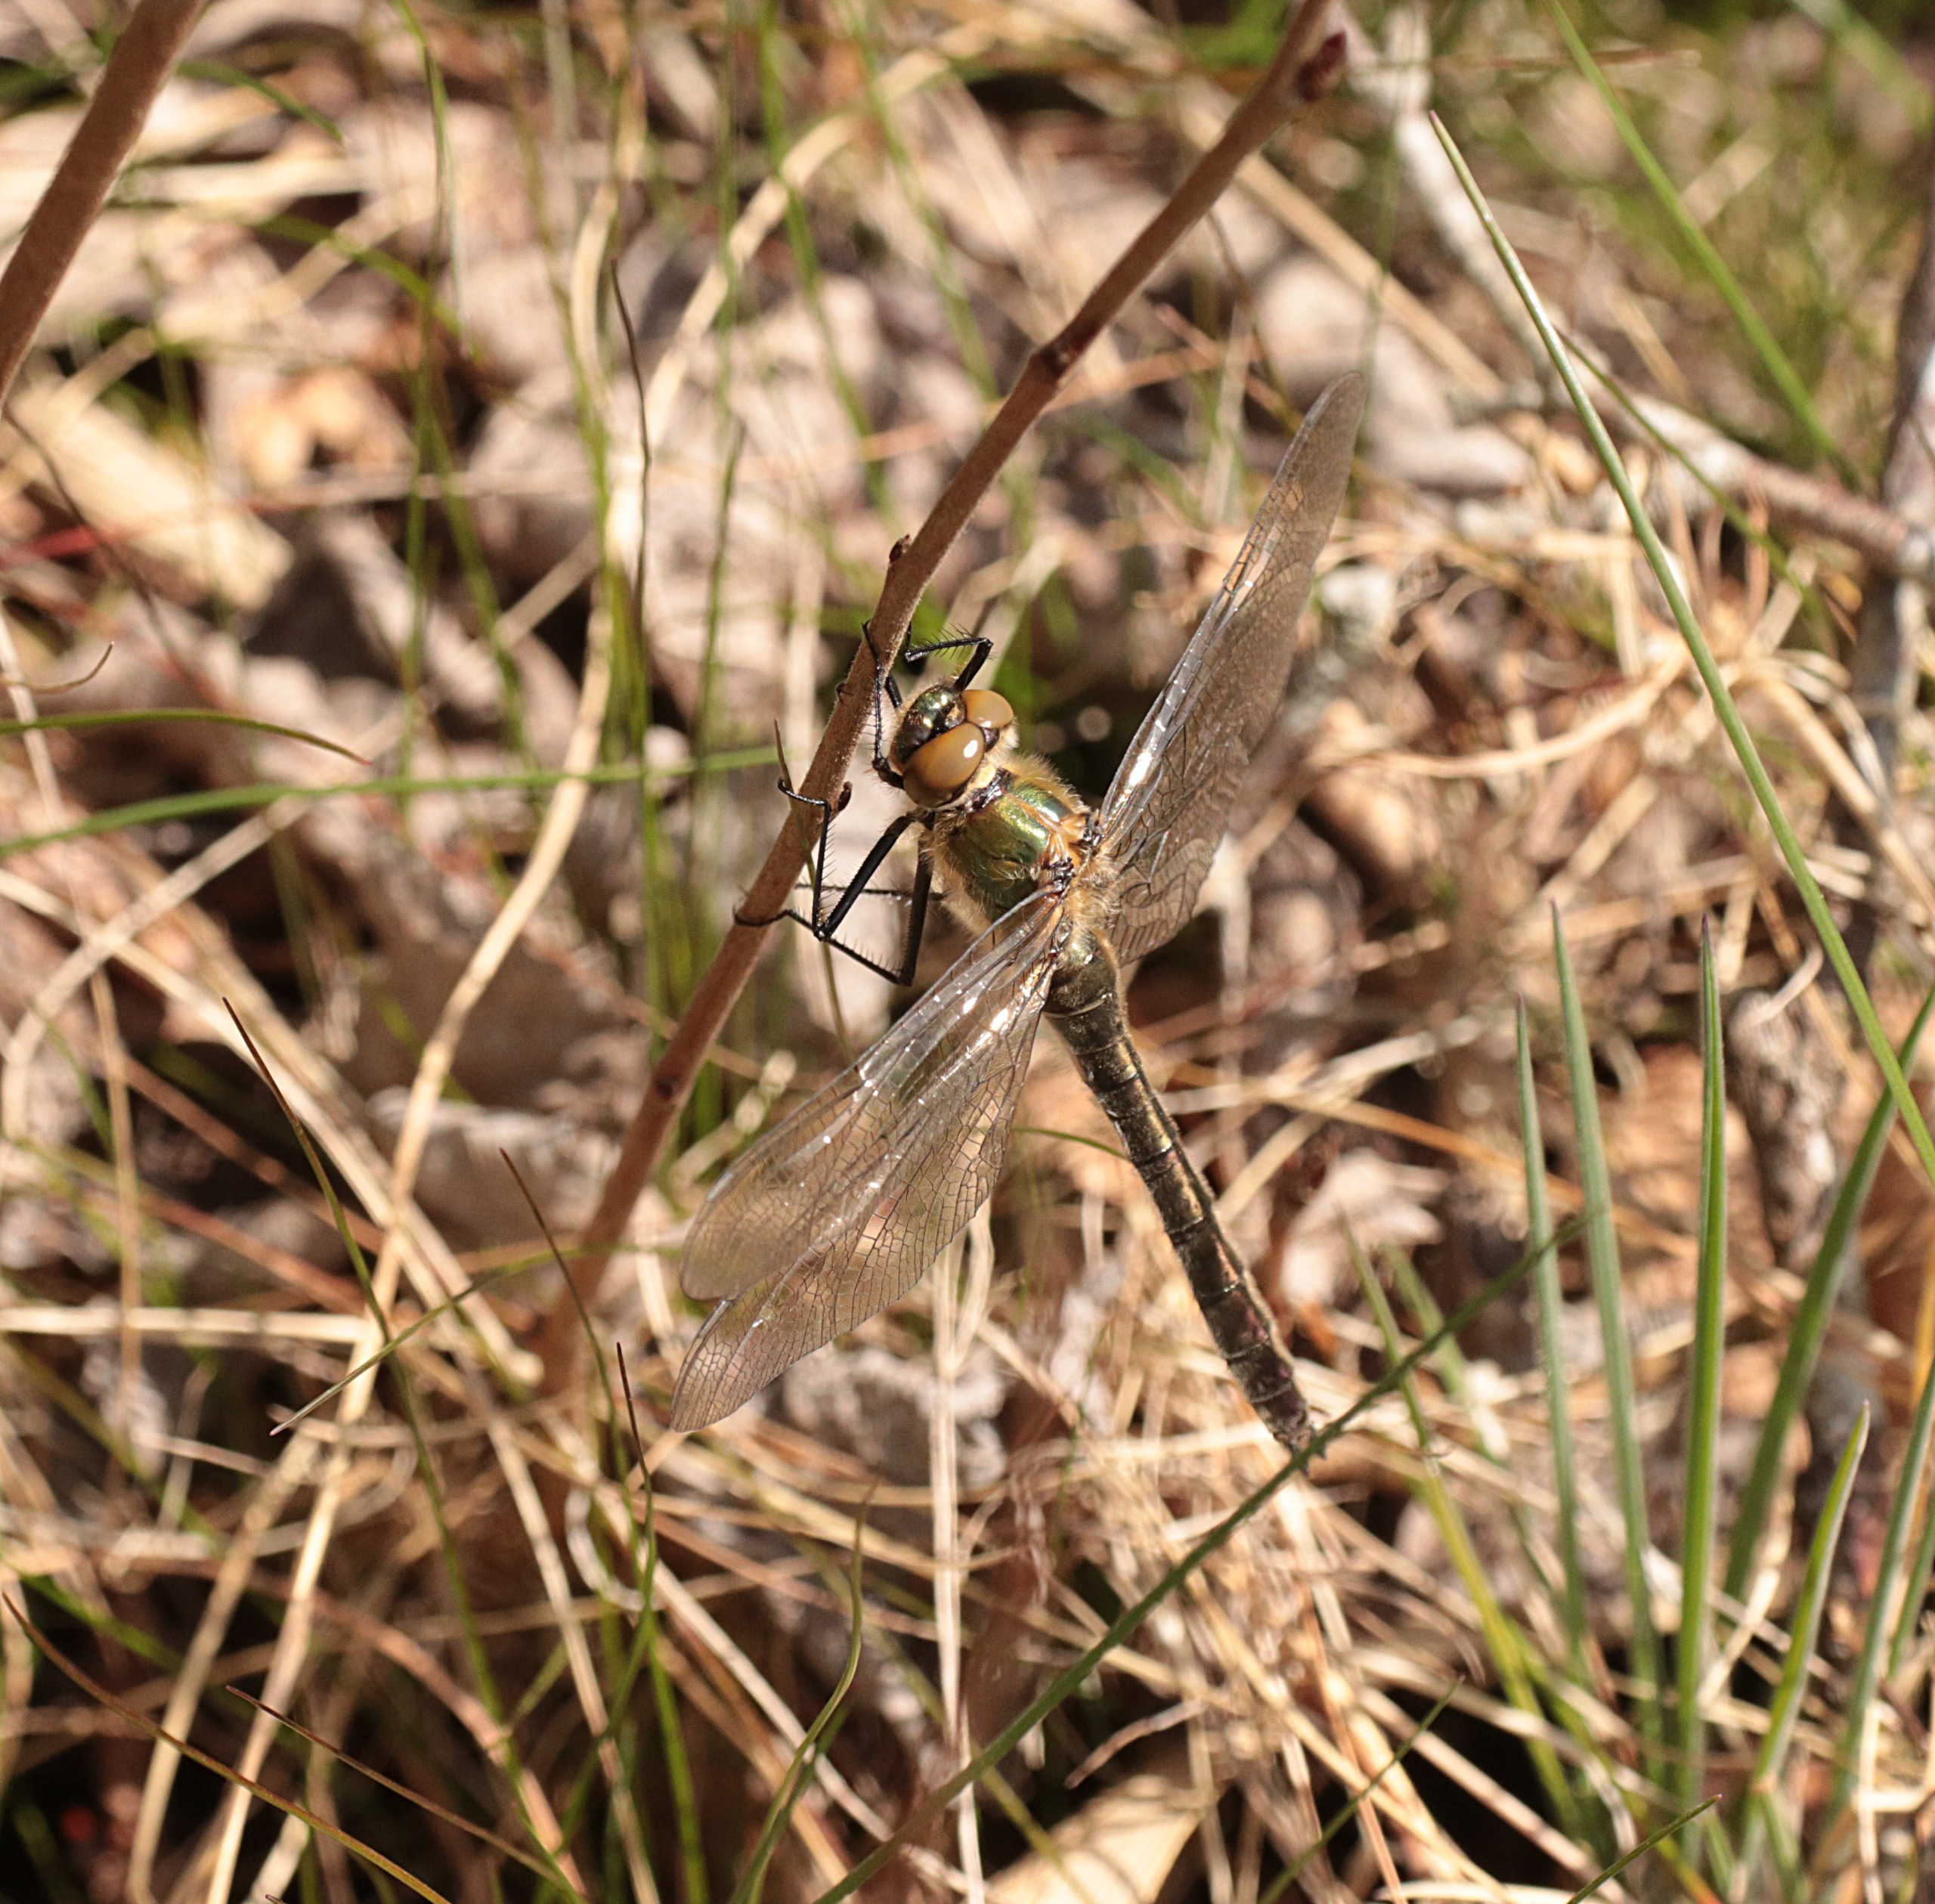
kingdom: Animalia
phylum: Arthropoda
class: Insecta
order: Odonata
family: Corduliidae
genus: Cordulia
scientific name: Cordulia aenea
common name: Grøn smaragdlibel
